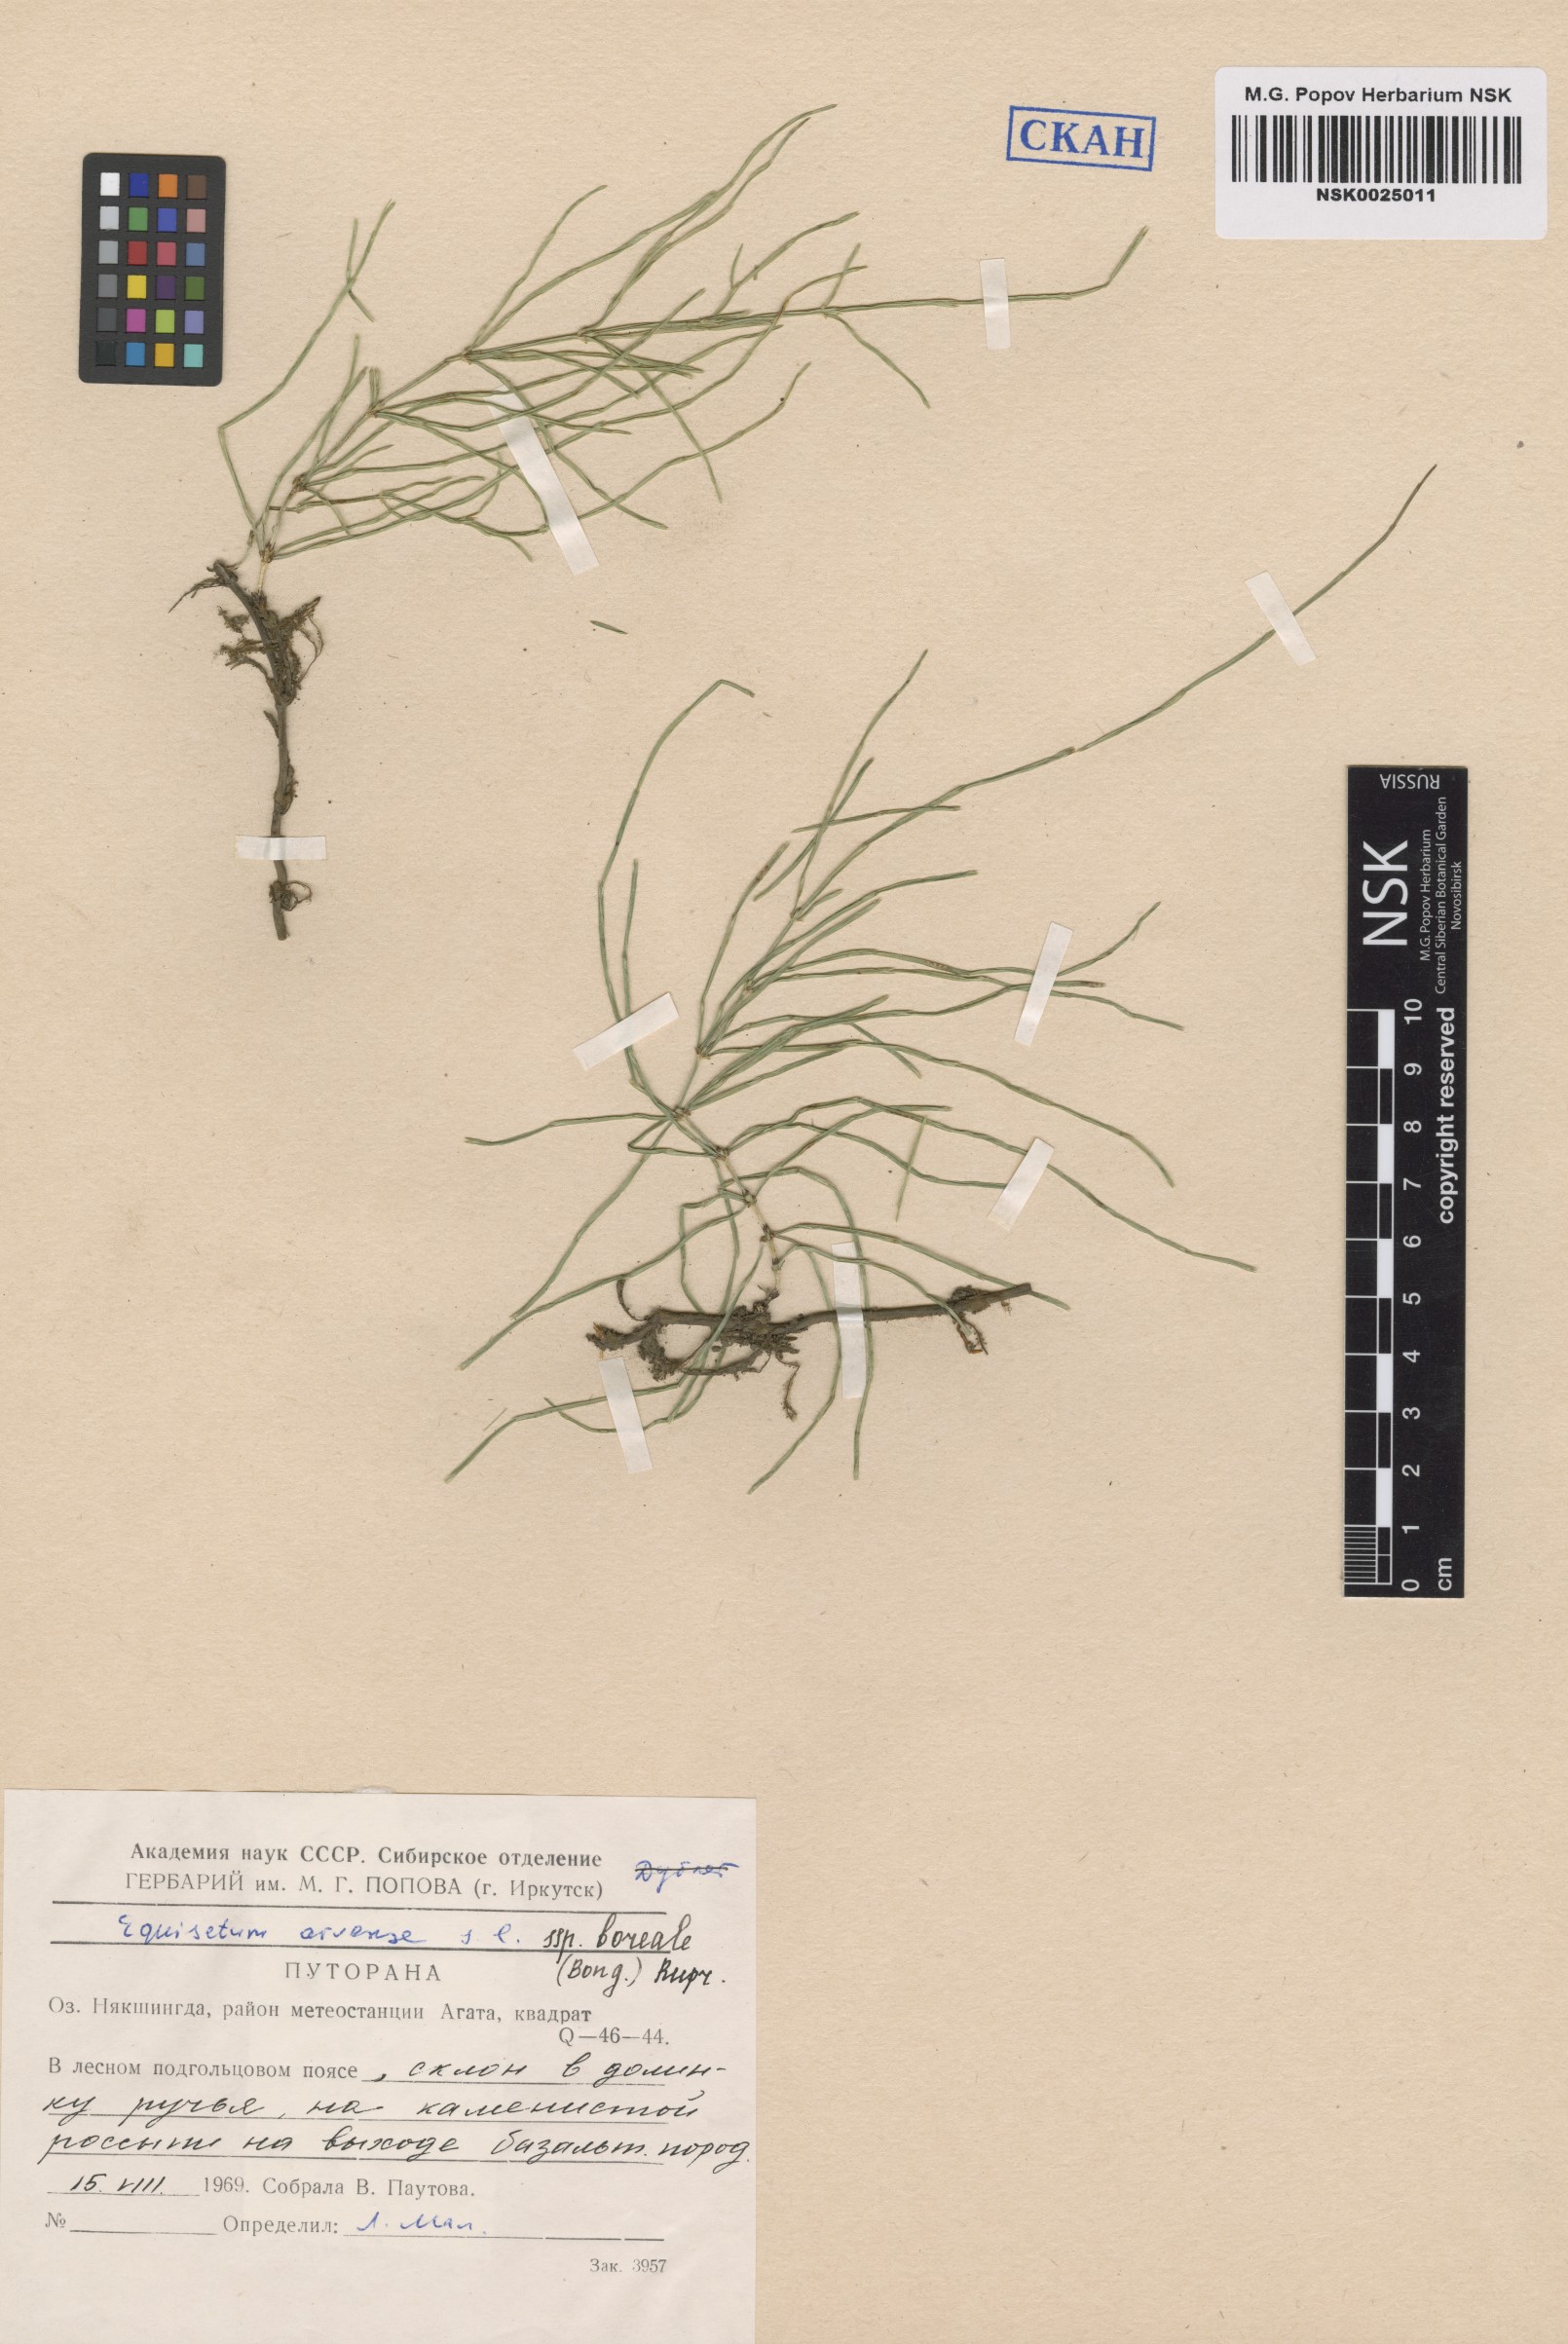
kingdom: Plantae
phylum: Tracheophyta
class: Polypodiopsida
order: Equisetales
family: Equisetaceae
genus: Equisetum
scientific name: Equisetum arvense
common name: Field horsetail
